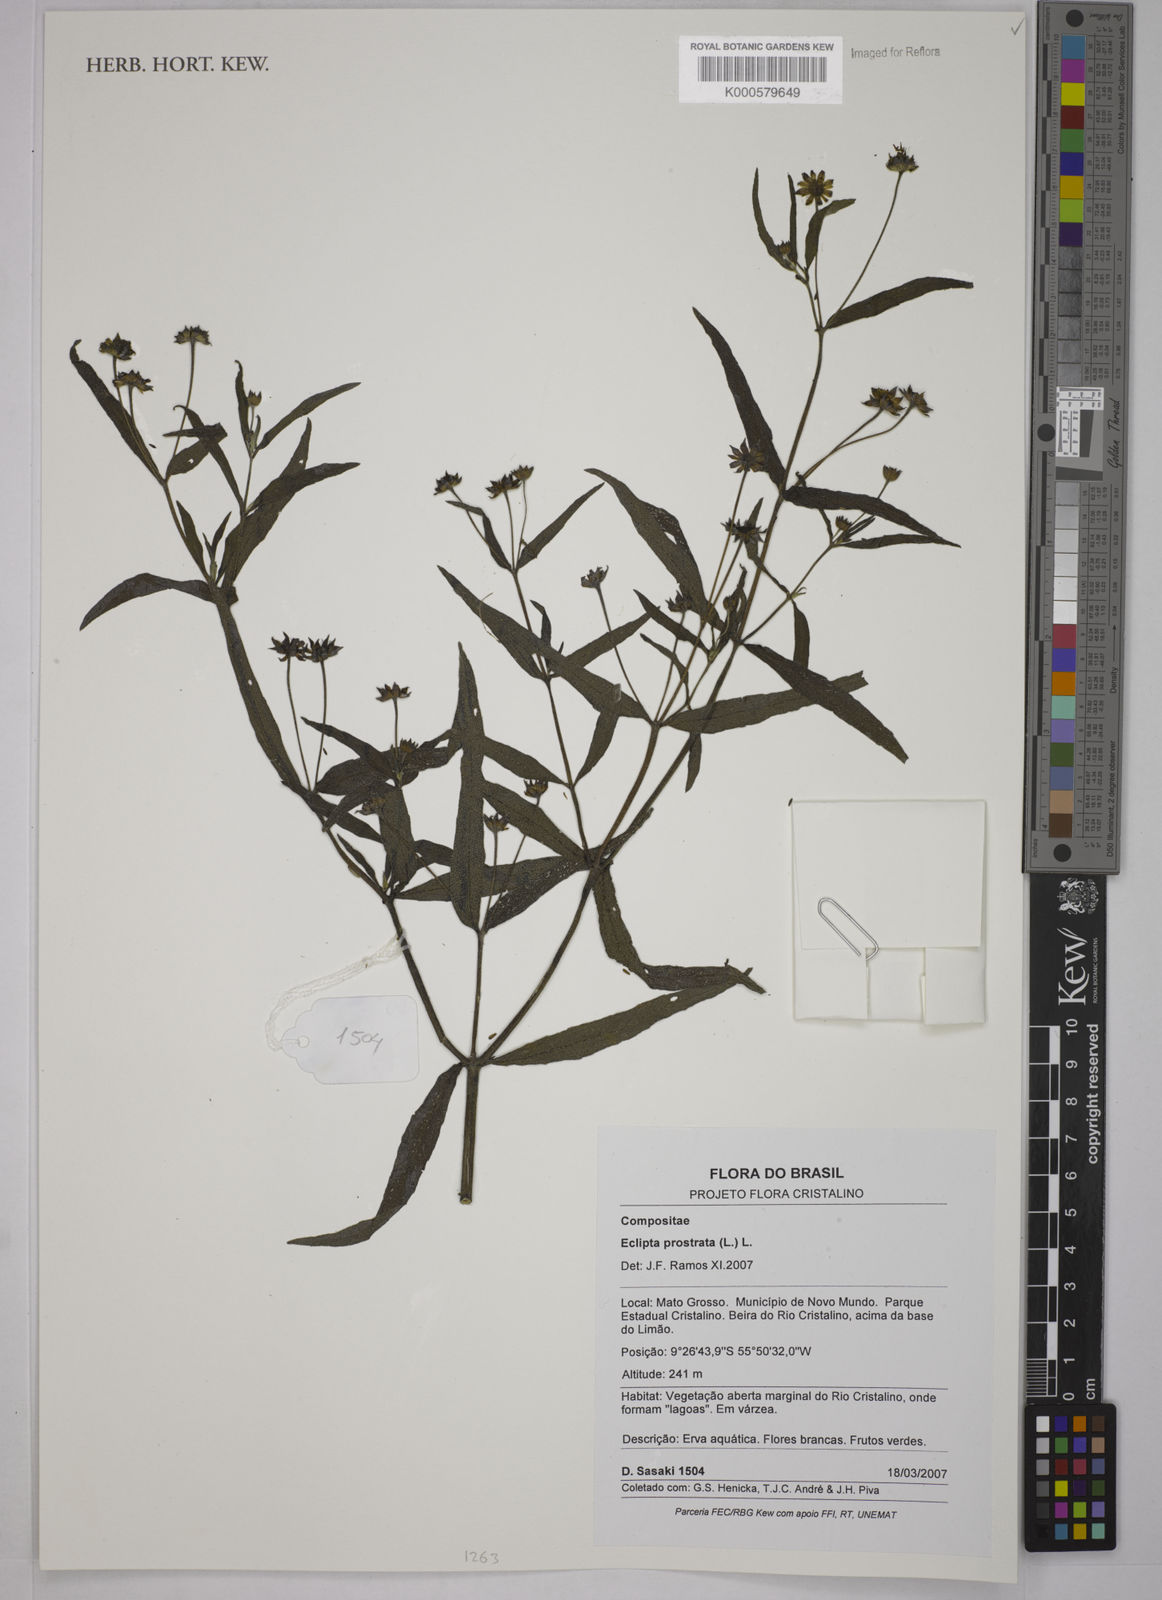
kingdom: Plantae
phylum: Tracheophyta
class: Magnoliopsida
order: Asterales
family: Asteraceae
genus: Eclipta
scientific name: Eclipta prostrata
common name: False daisy
